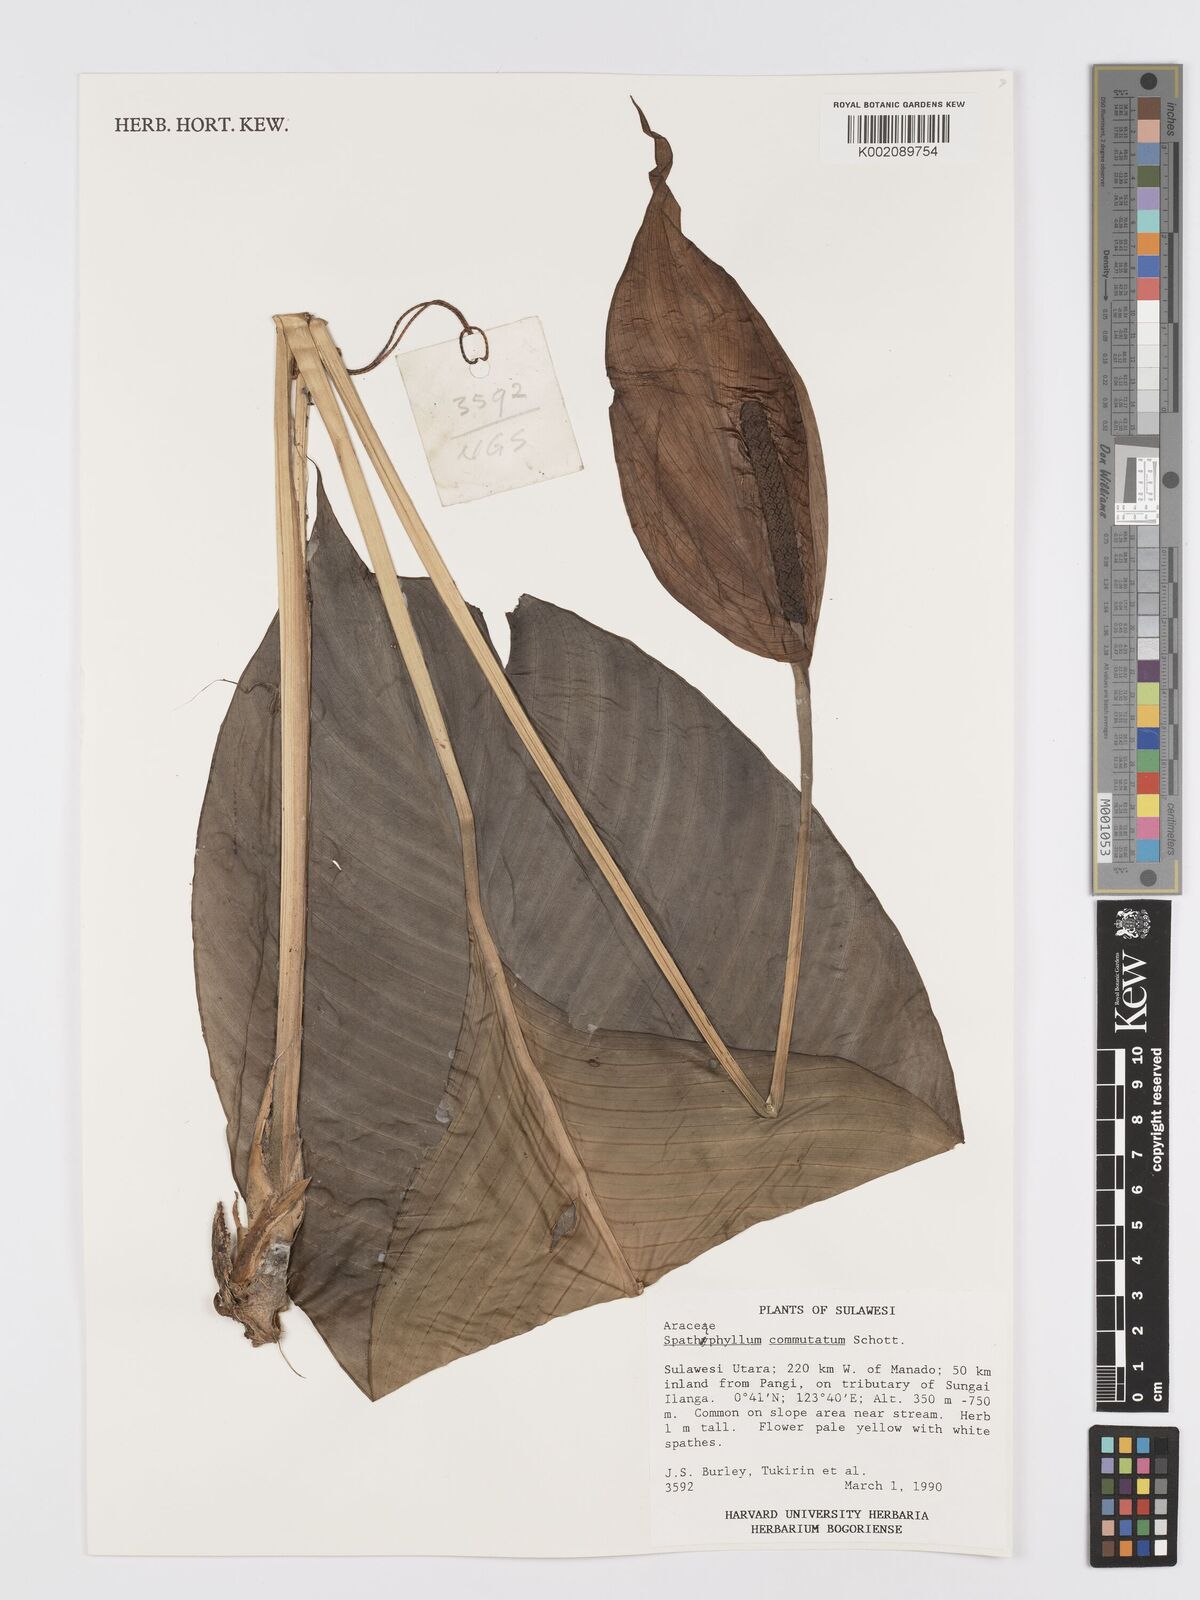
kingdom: Plantae
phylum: Tracheophyta
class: Liliopsida
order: Alismatales
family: Araceae
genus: Spathiphyllum
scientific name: Spathiphyllum commutatum
